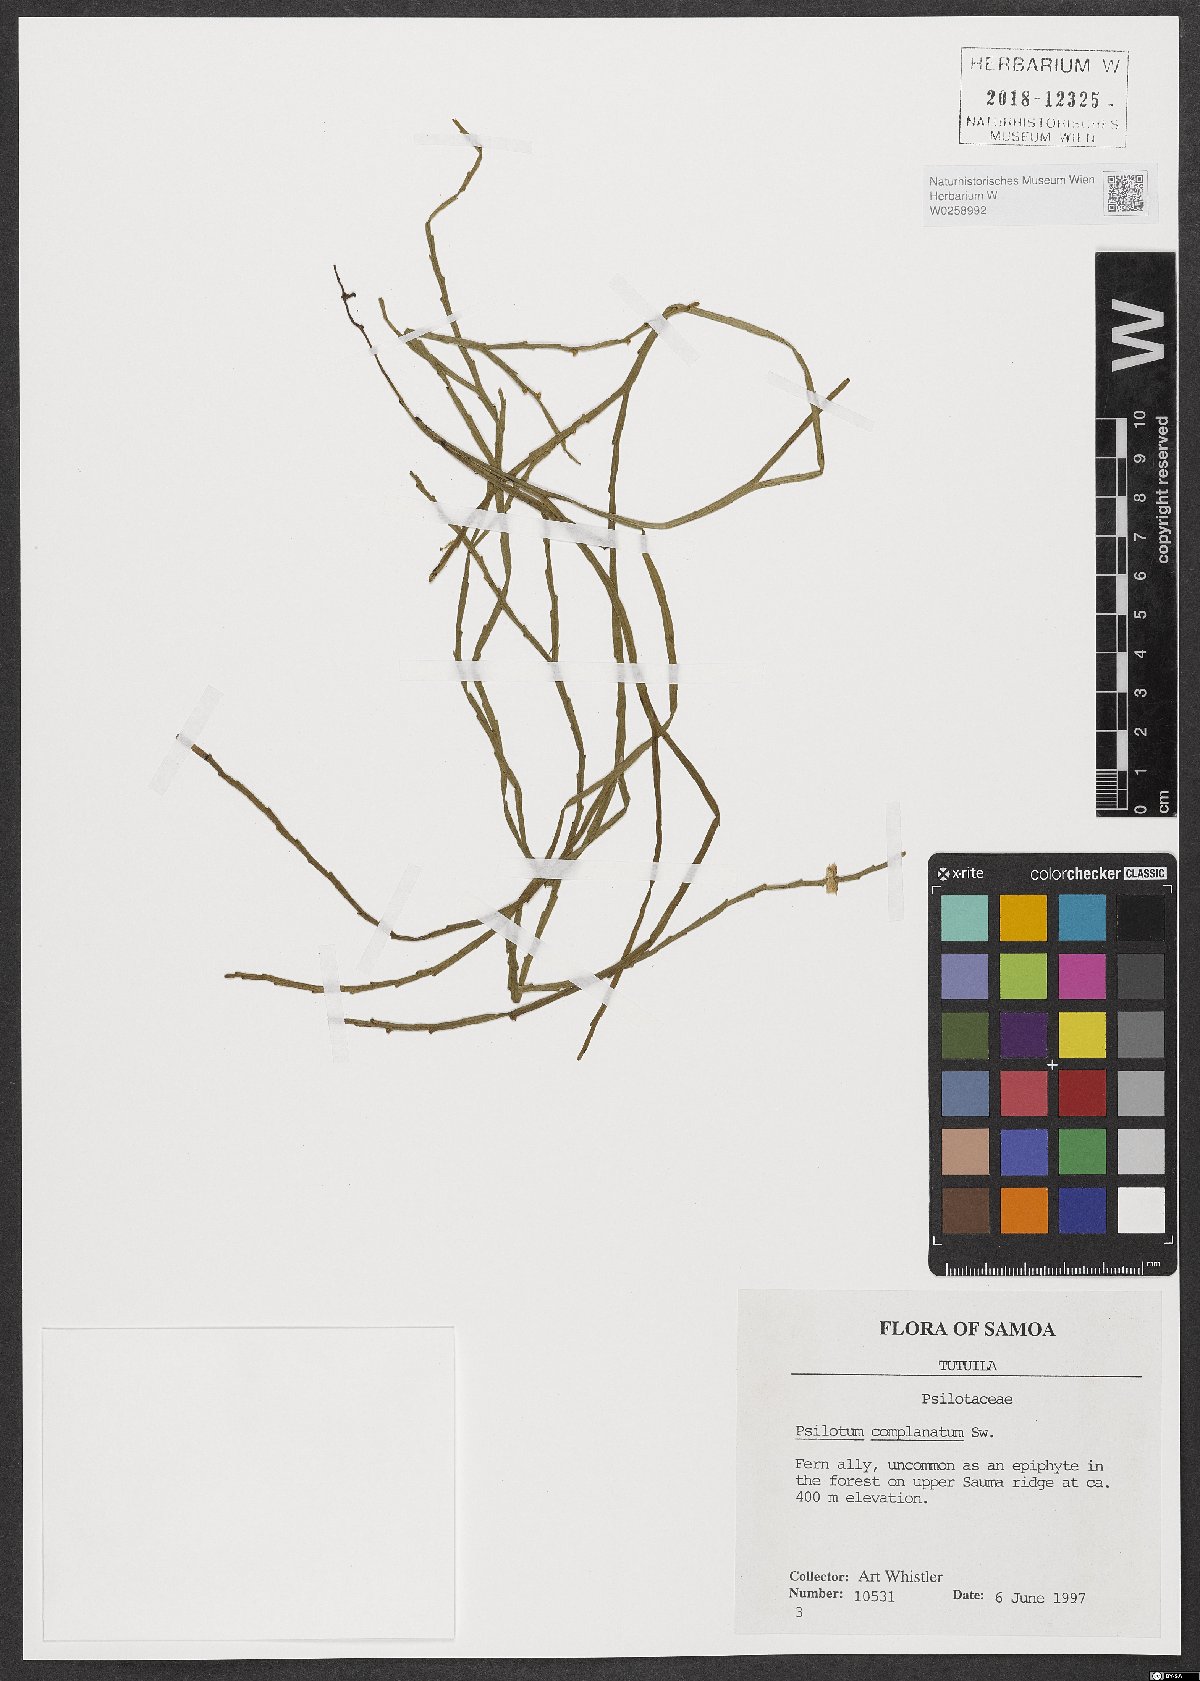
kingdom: Plantae
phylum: Tracheophyta
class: Polypodiopsida
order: Psilotales
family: Psilotaceae
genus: Psilotum
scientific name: Psilotum complanatum
